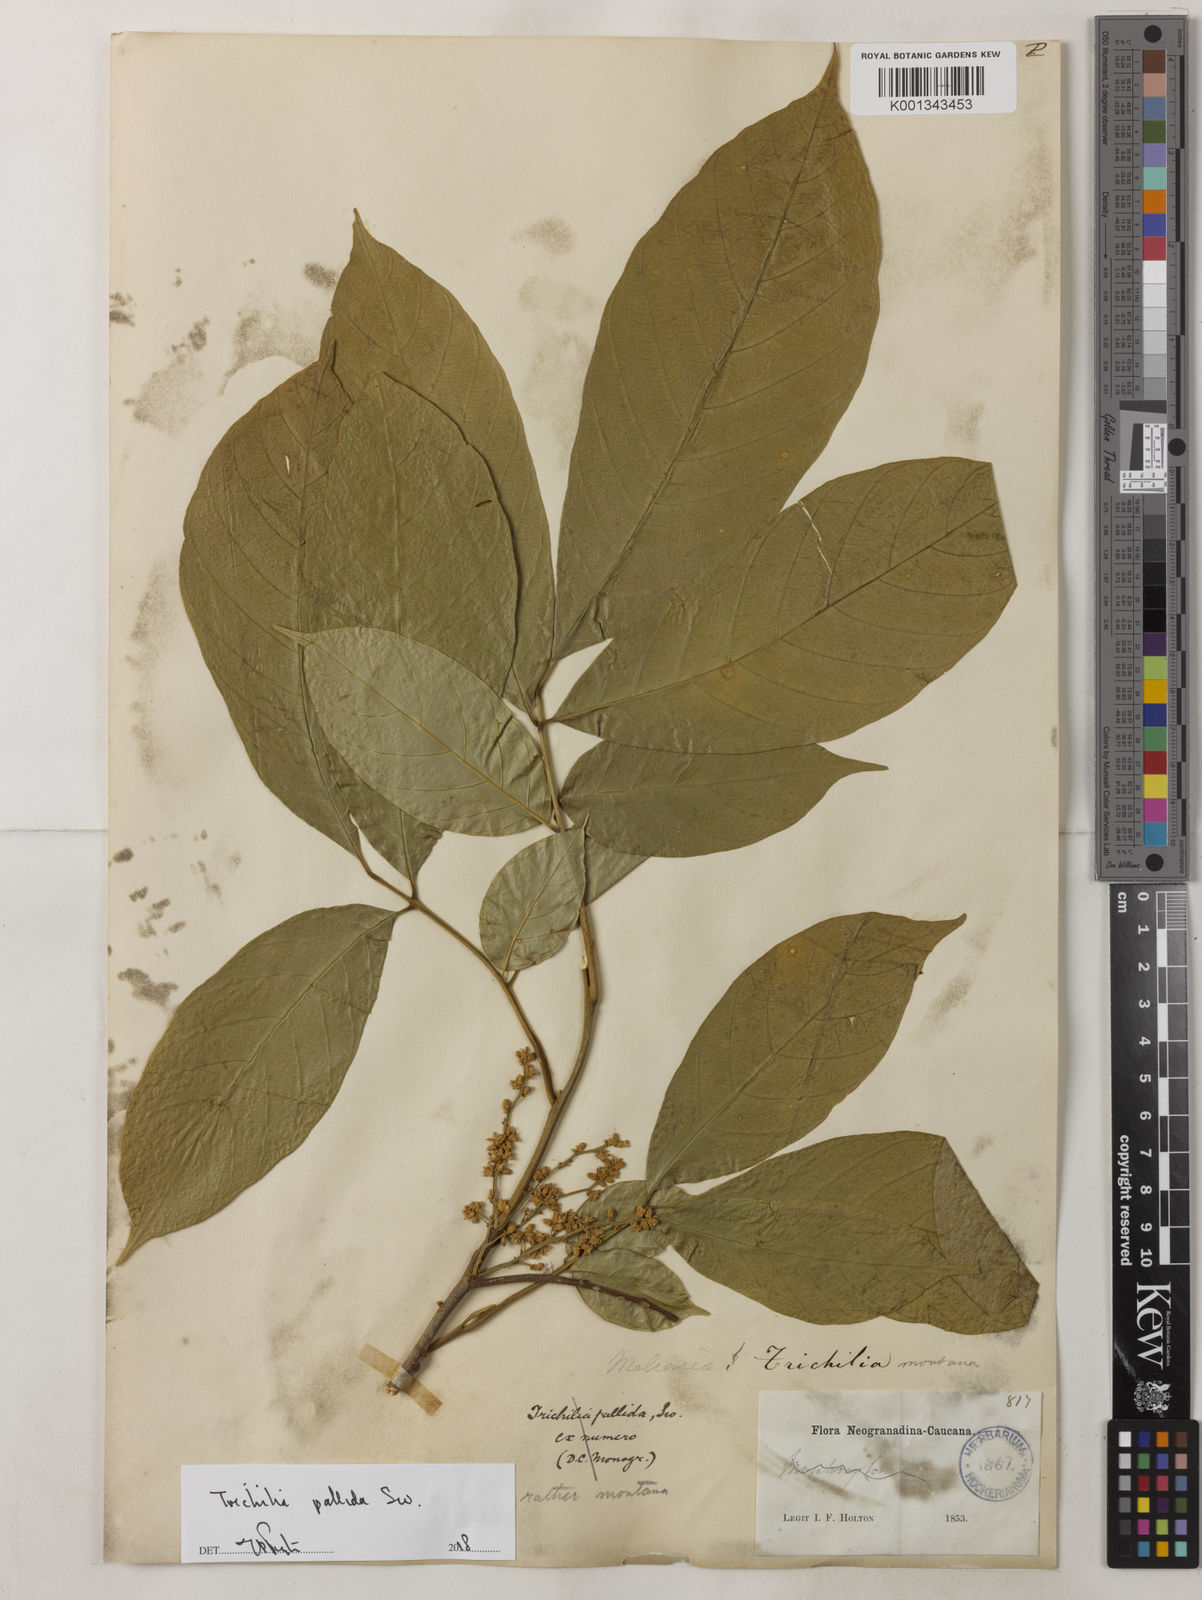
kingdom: Plantae
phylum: Tracheophyta
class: Magnoliopsida
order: Sapindales
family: Meliaceae
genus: Trichilia
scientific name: Trichilia pallida
